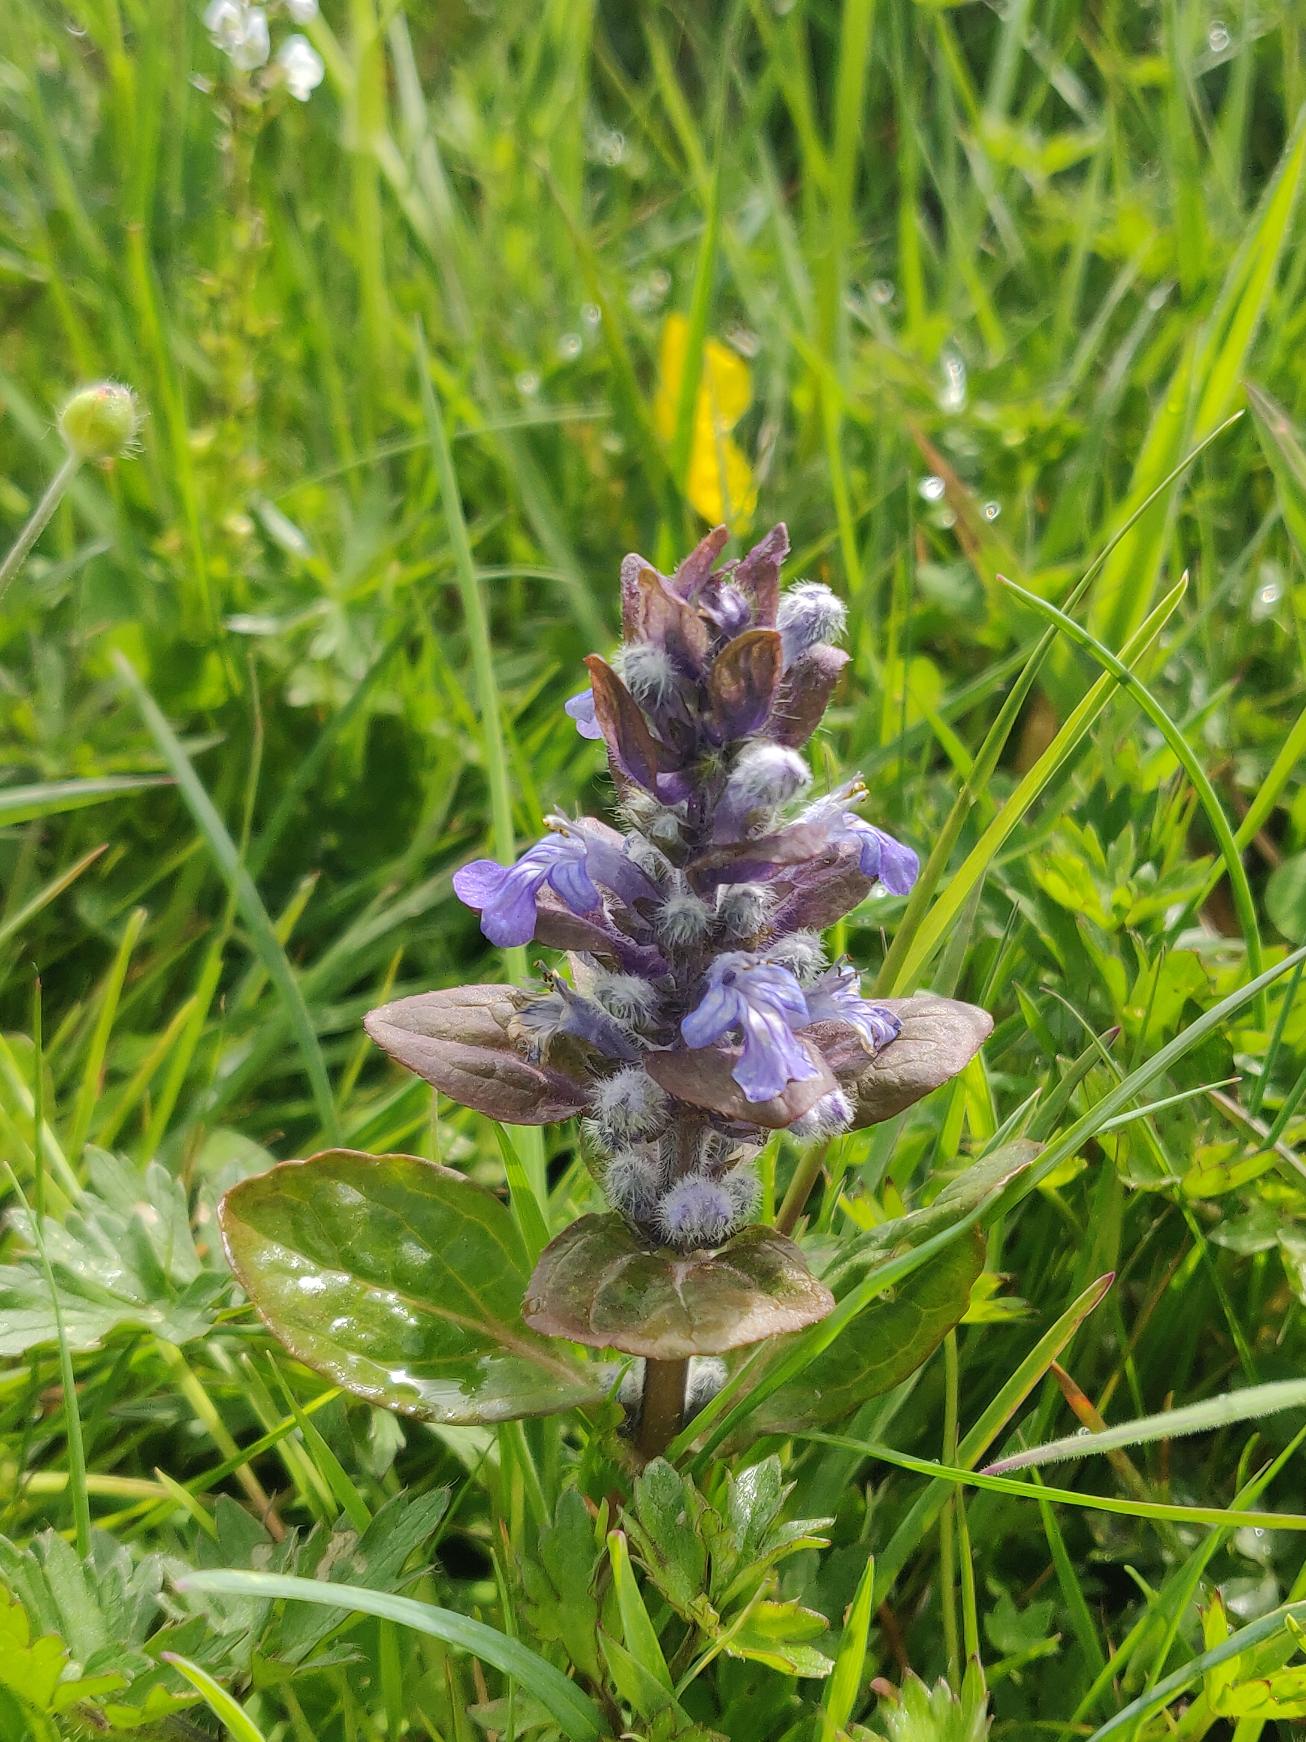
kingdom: Plantae
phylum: Tracheophyta
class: Magnoliopsida
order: Lamiales
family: Lamiaceae
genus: Ajuga
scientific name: Ajuga reptans
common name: Krybende læbeløs
